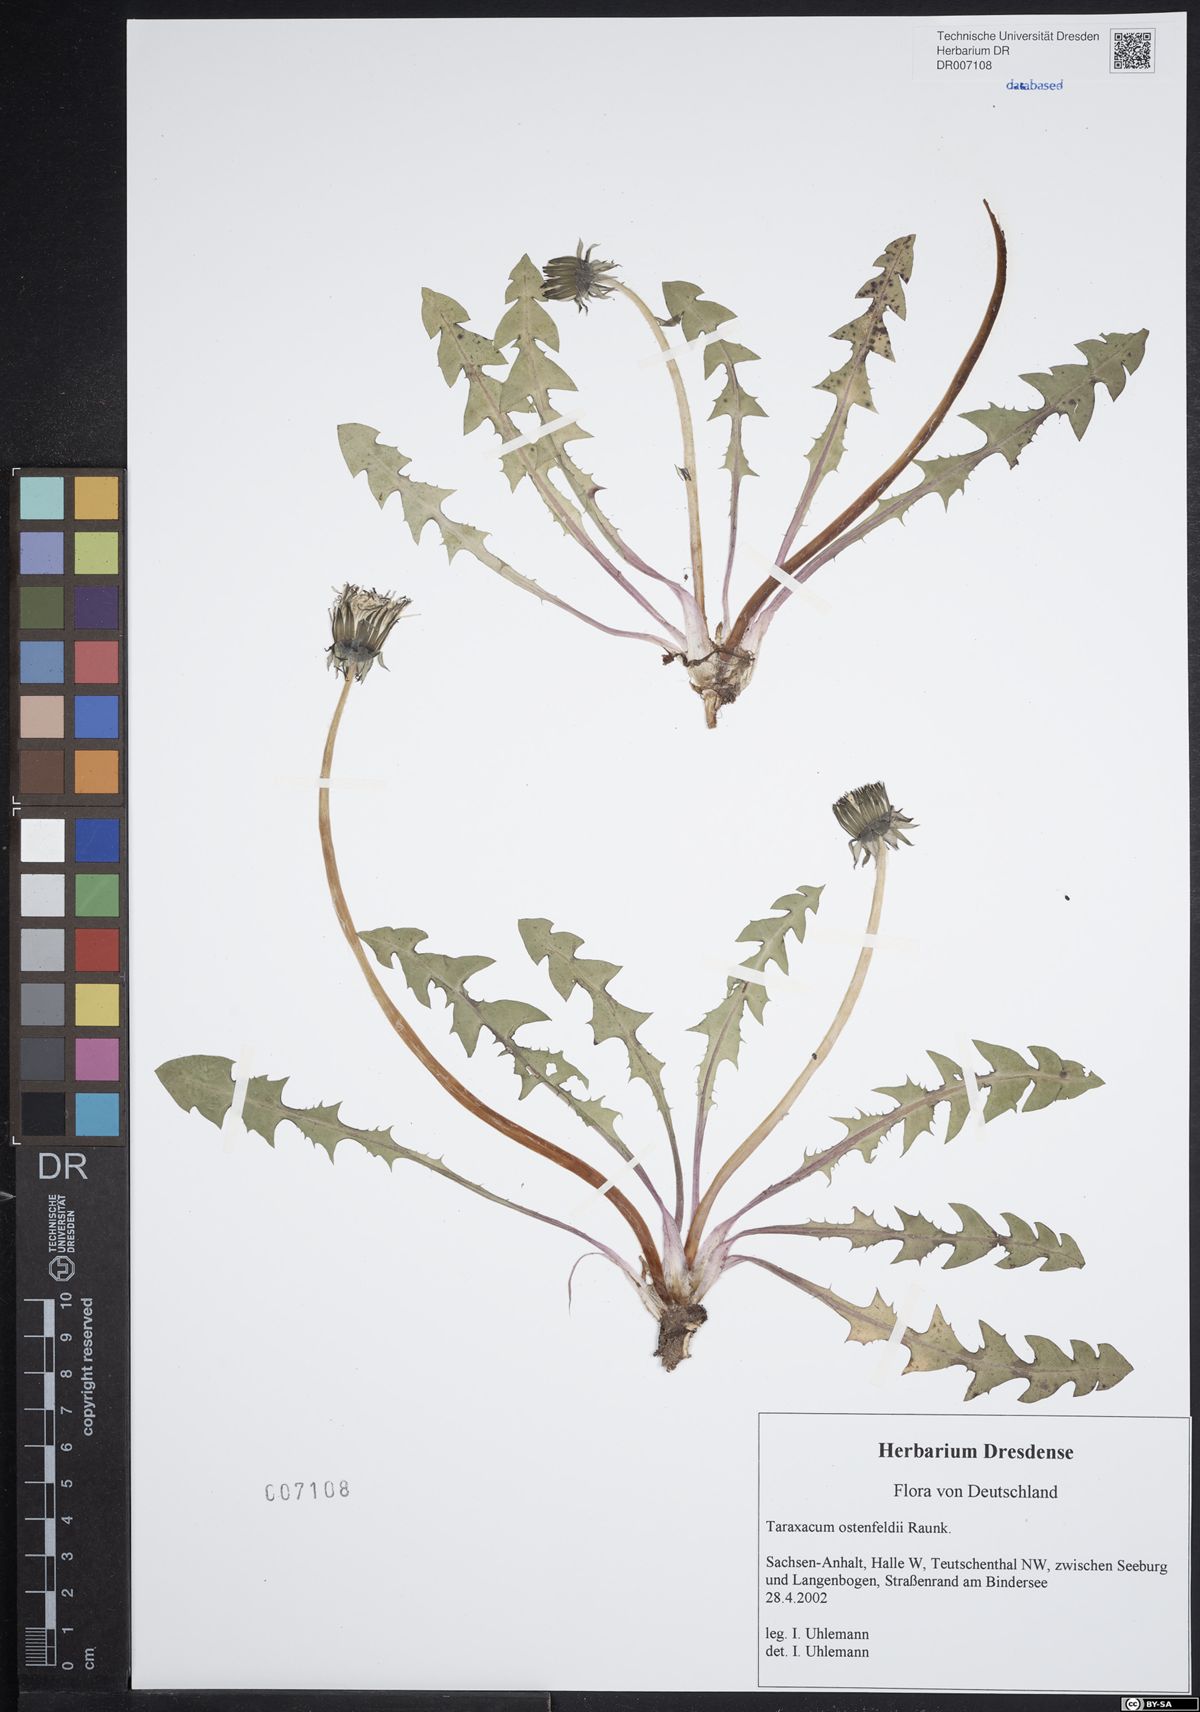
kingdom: Plantae
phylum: Tracheophyta
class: Magnoliopsida
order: Asterales
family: Asteraceae
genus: Taraxacum
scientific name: Taraxacum ostenfeldii
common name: Ostenfeld's dandelion
